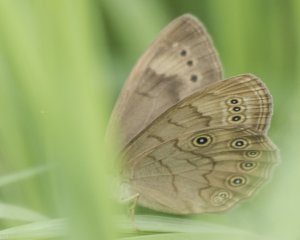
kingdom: Animalia
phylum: Arthropoda
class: Insecta
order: Lepidoptera
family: Nymphalidae
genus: Lethe
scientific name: Lethe eurydice
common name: Eyed Brown
